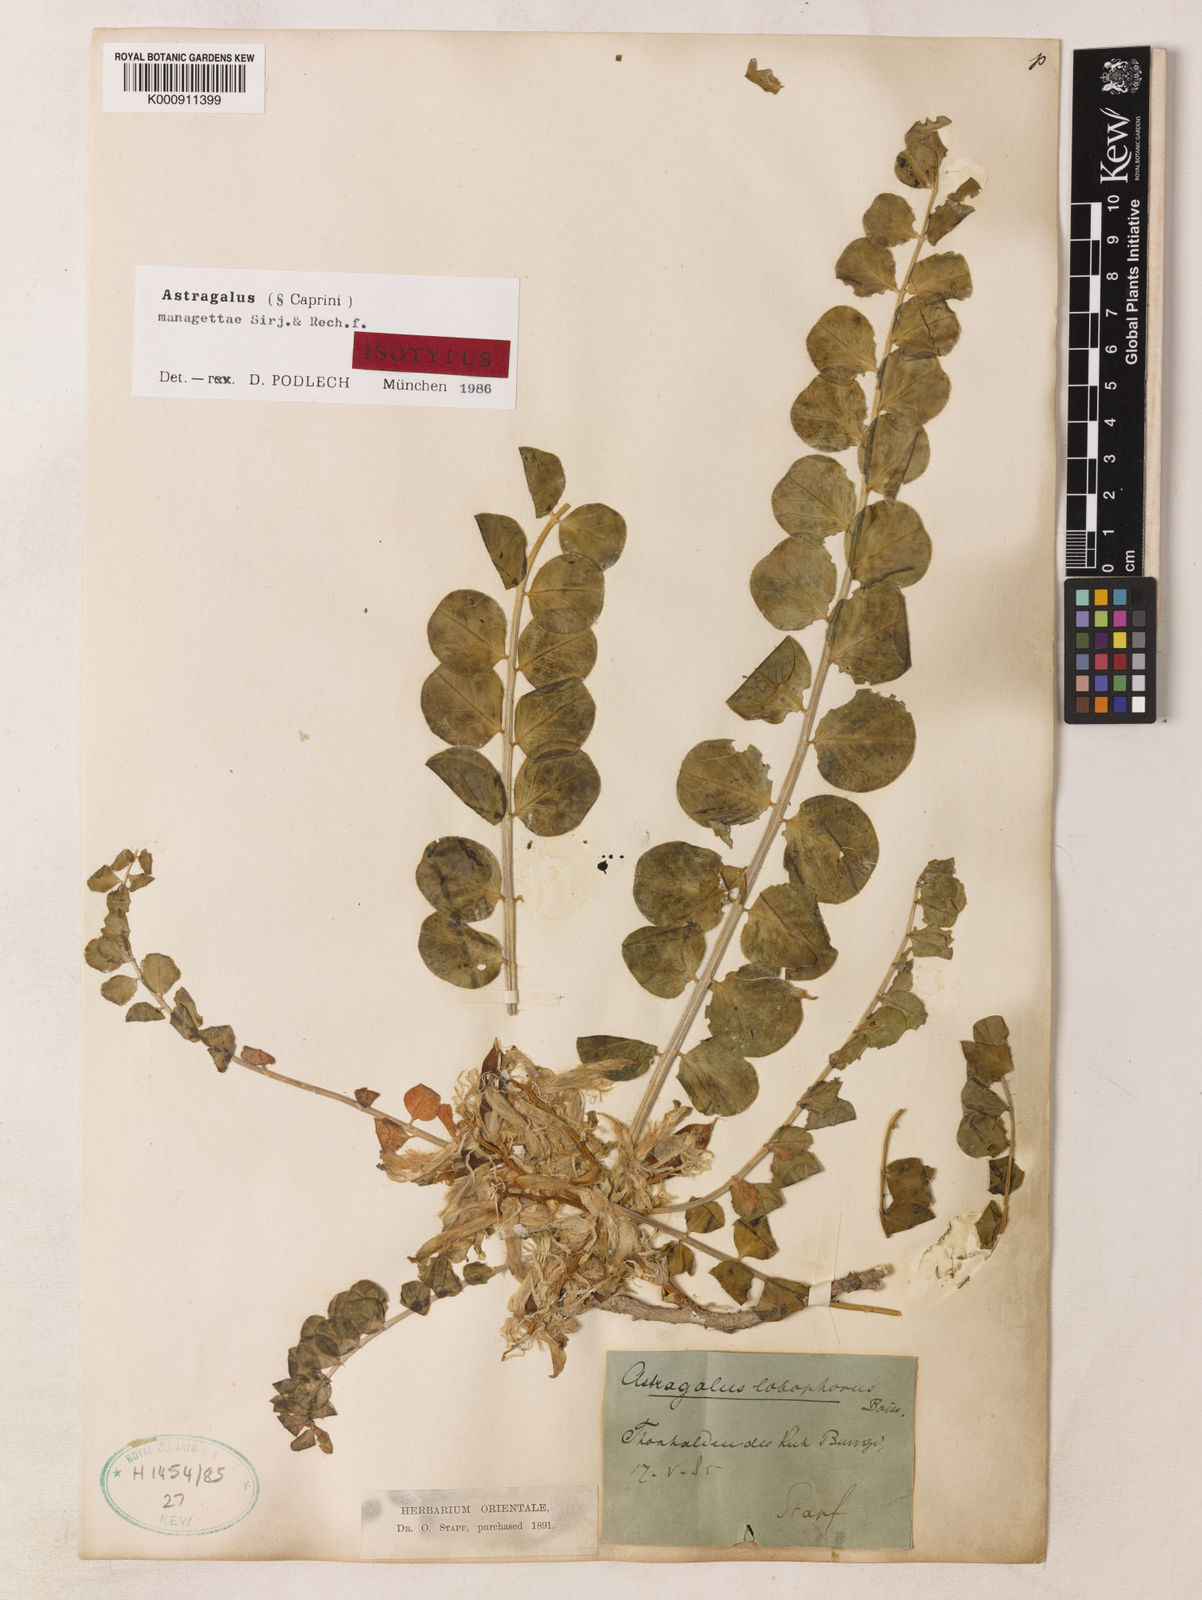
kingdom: Plantae
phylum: Tracheophyta
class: Magnoliopsida
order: Fabales
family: Fabaceae
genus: Astragalus
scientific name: Astragalus managettae
